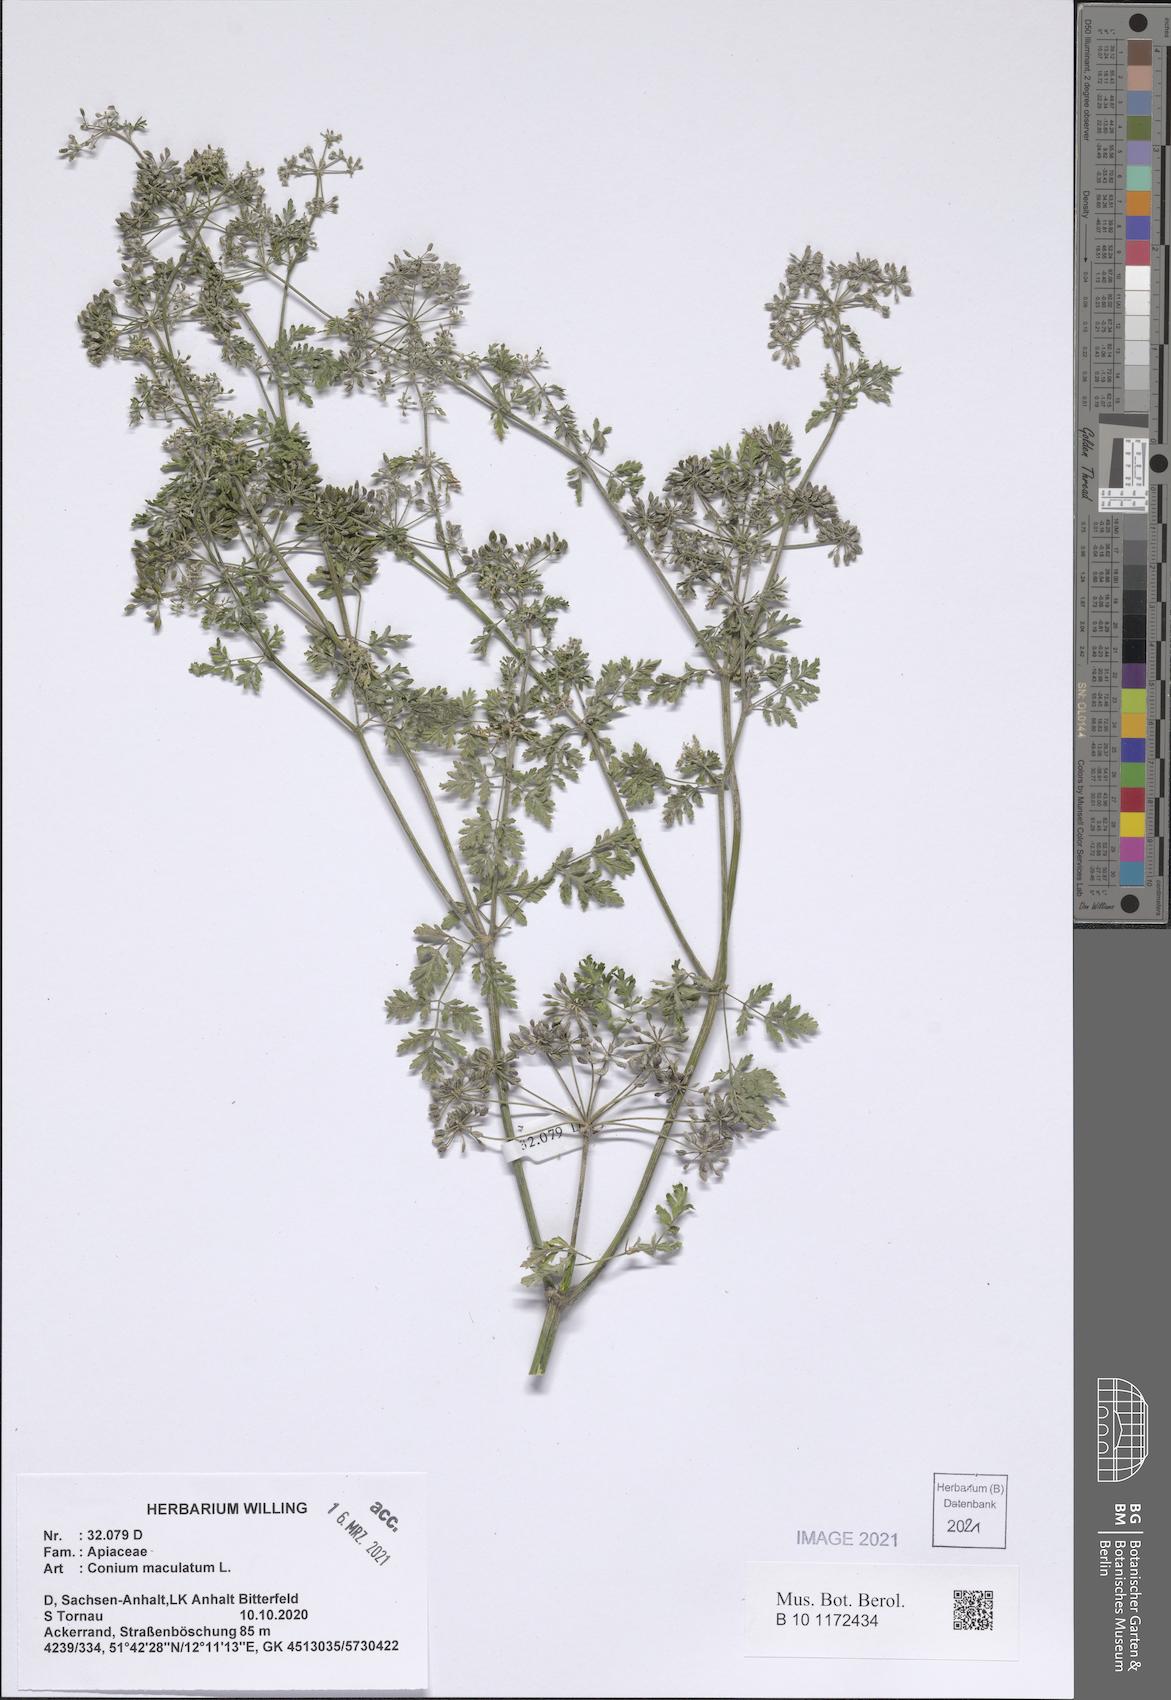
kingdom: Plantae
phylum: Tracheophyta
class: Magnoliopsida
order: Apiales
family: Apiaceae
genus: Conium
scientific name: Conium maculatum
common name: Hemlock
